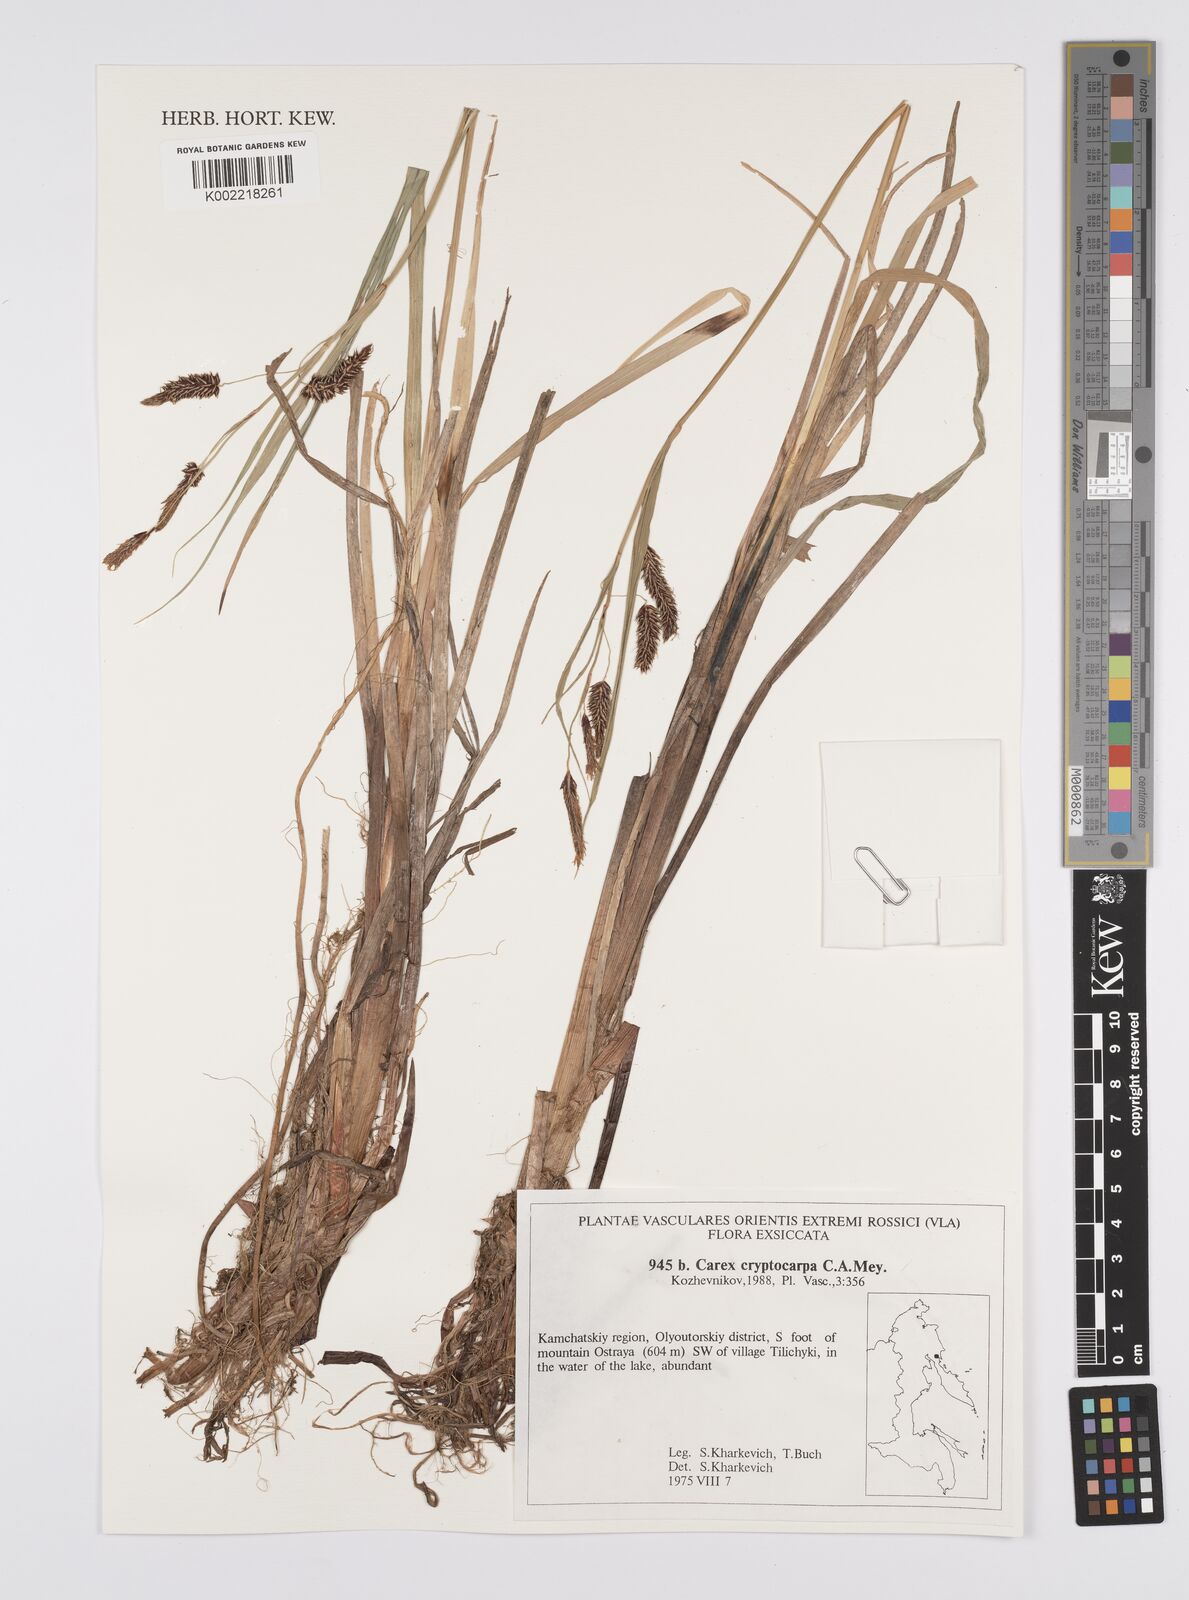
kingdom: Plantae
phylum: Tracheophyta
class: Liliopsida
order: Poales
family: Cyperaceae
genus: Carex
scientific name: Carex lyngbyei
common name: Lyngbye's sedge
